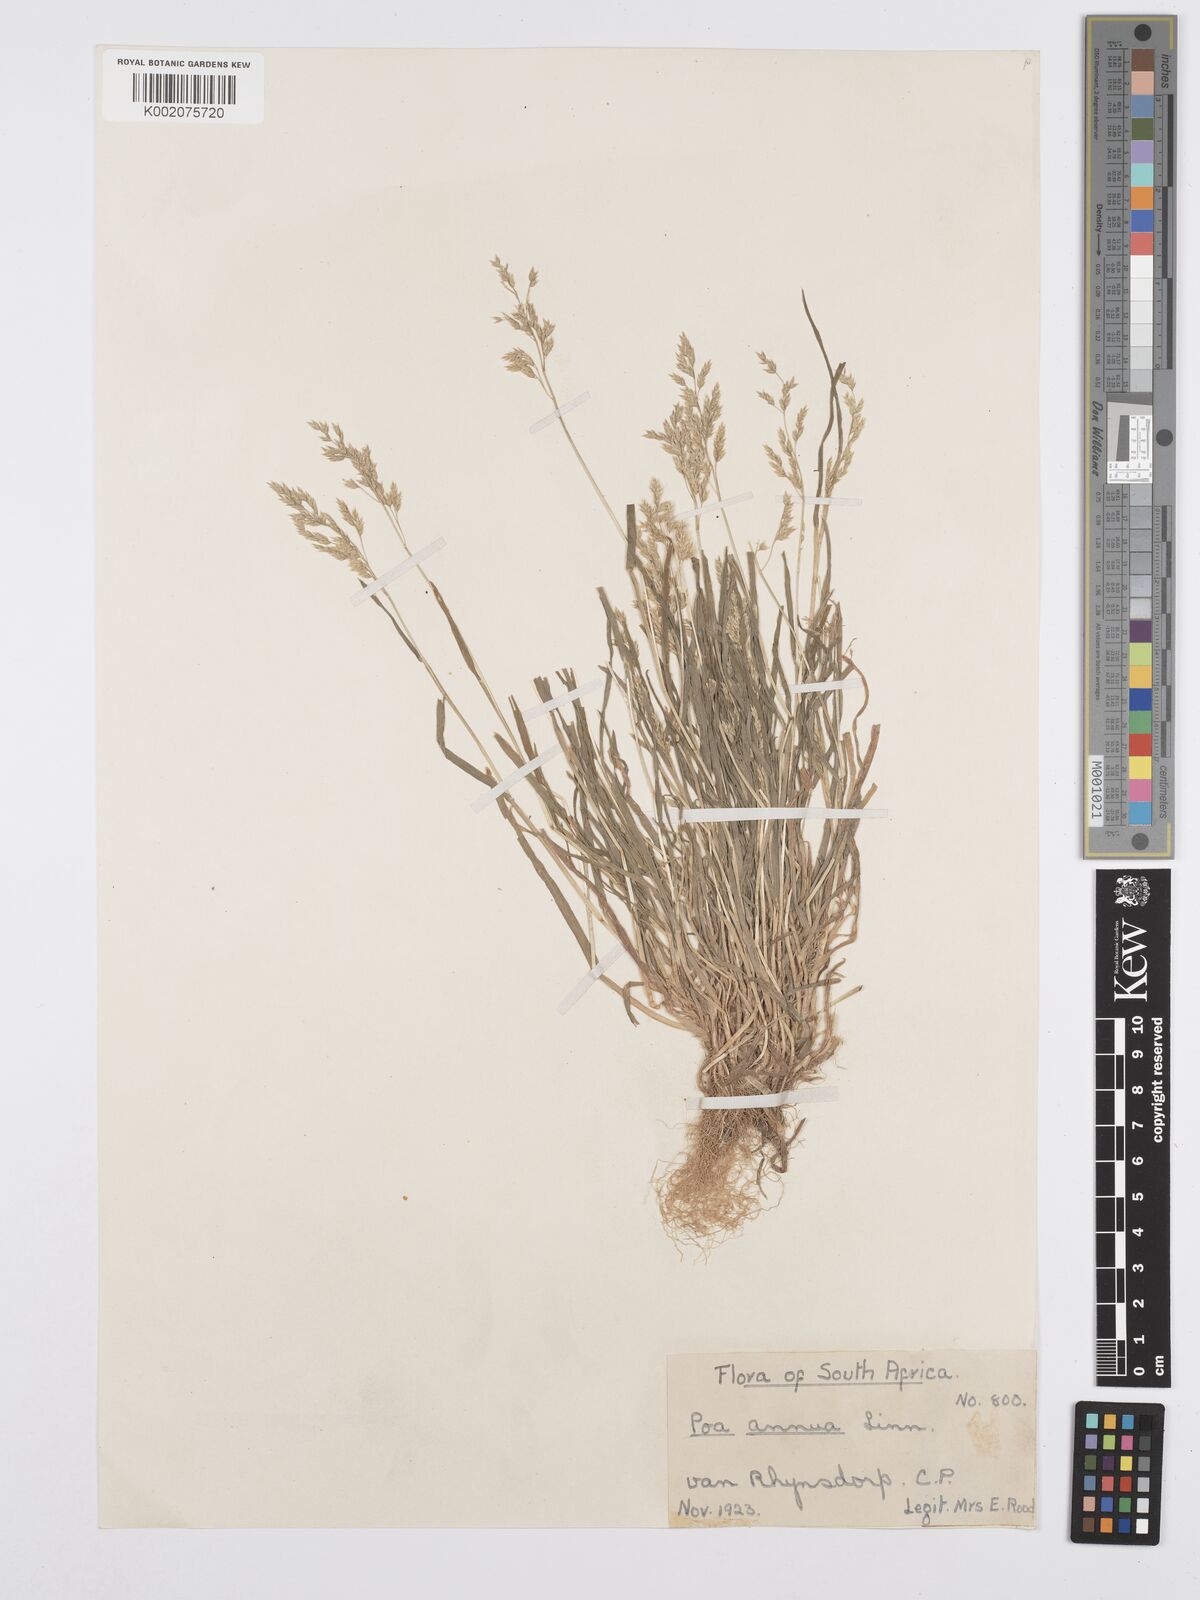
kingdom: Plantae
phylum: Tracheophyta
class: Liliopsida
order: Poales
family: Poaceae
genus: Poa
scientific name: Poa annua
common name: Annual bluegrass
